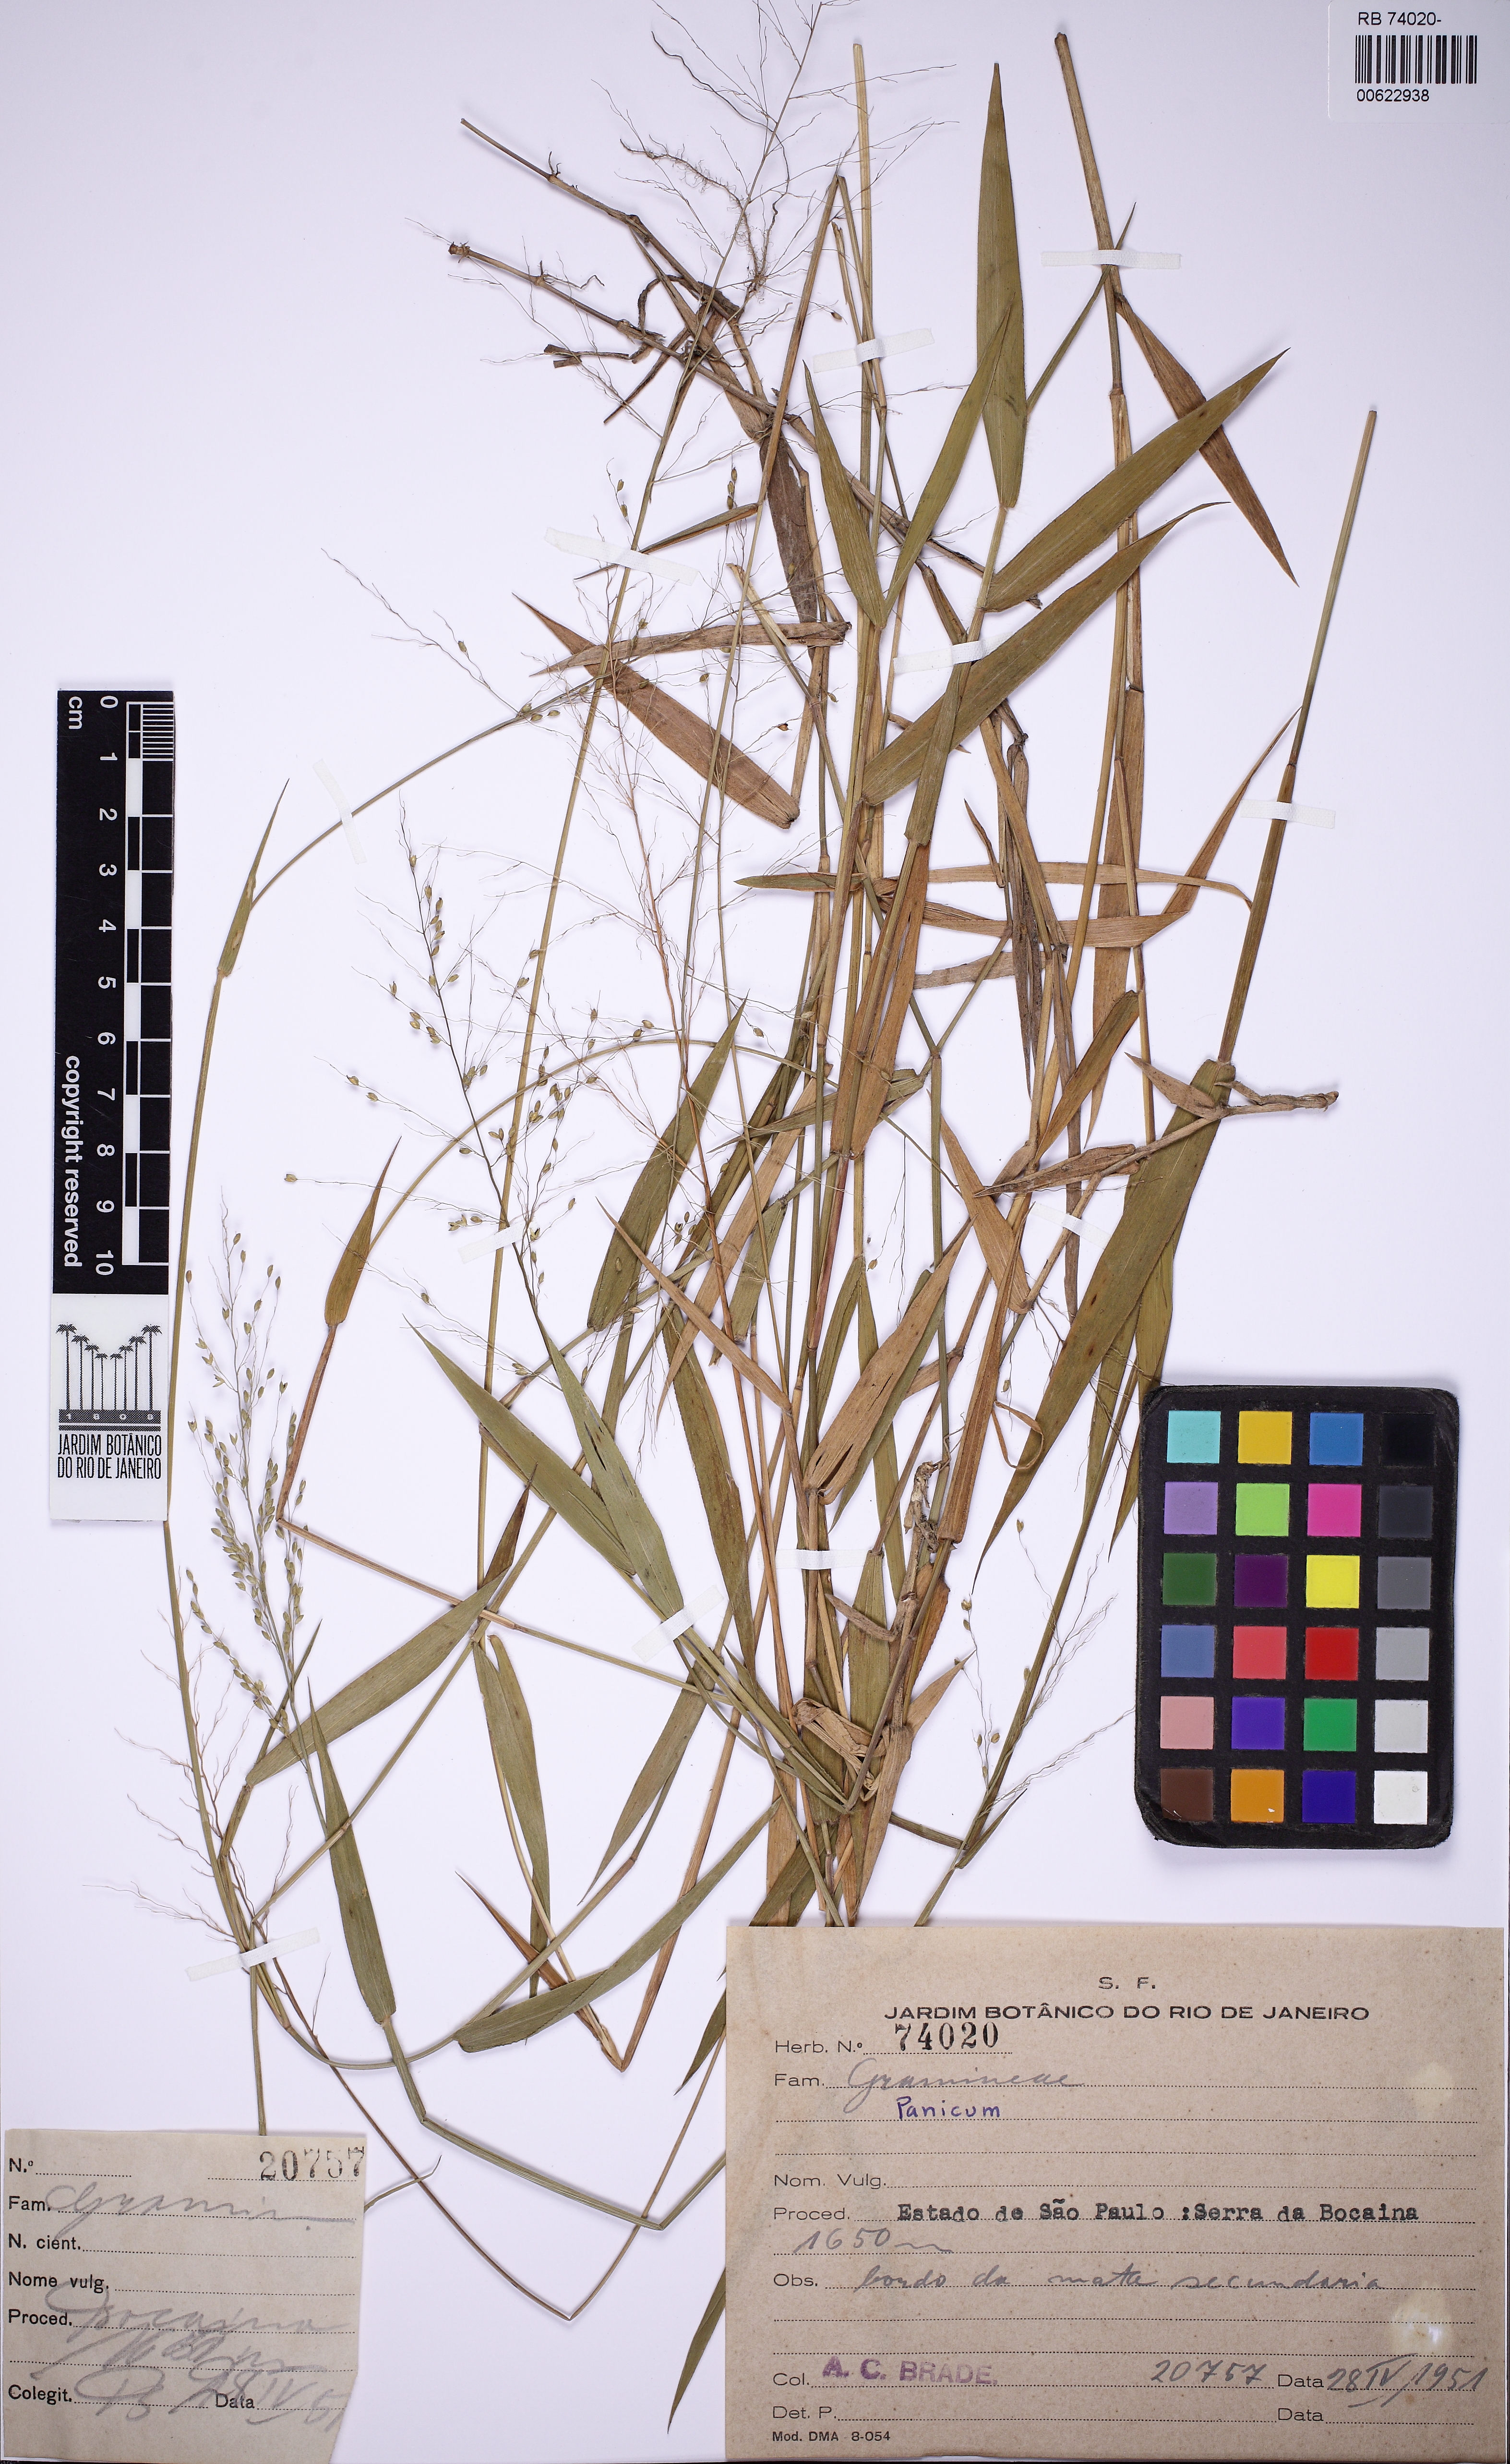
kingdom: Plantae
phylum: Tracheophyta
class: Liliopsida
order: Poales
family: Poaceae
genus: Dichanthelium
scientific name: Dichanthelium surrectum
